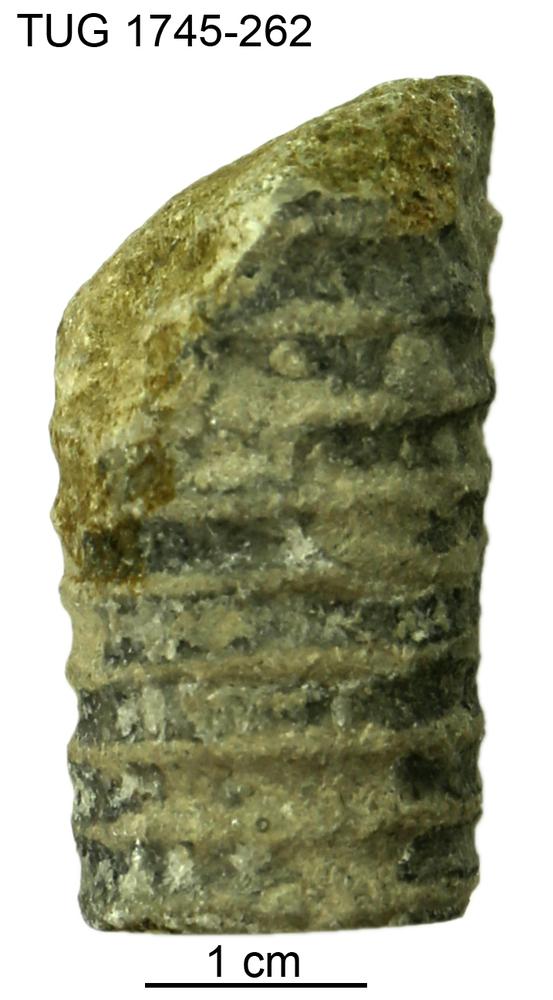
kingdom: Animalia
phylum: Mollusca
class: Cephalopoda
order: Orthocerida
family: Dawsonoceratidae
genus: Palaeodawsonocerina
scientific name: Palaeodawsonocerina Spyroceras senckenbergi
